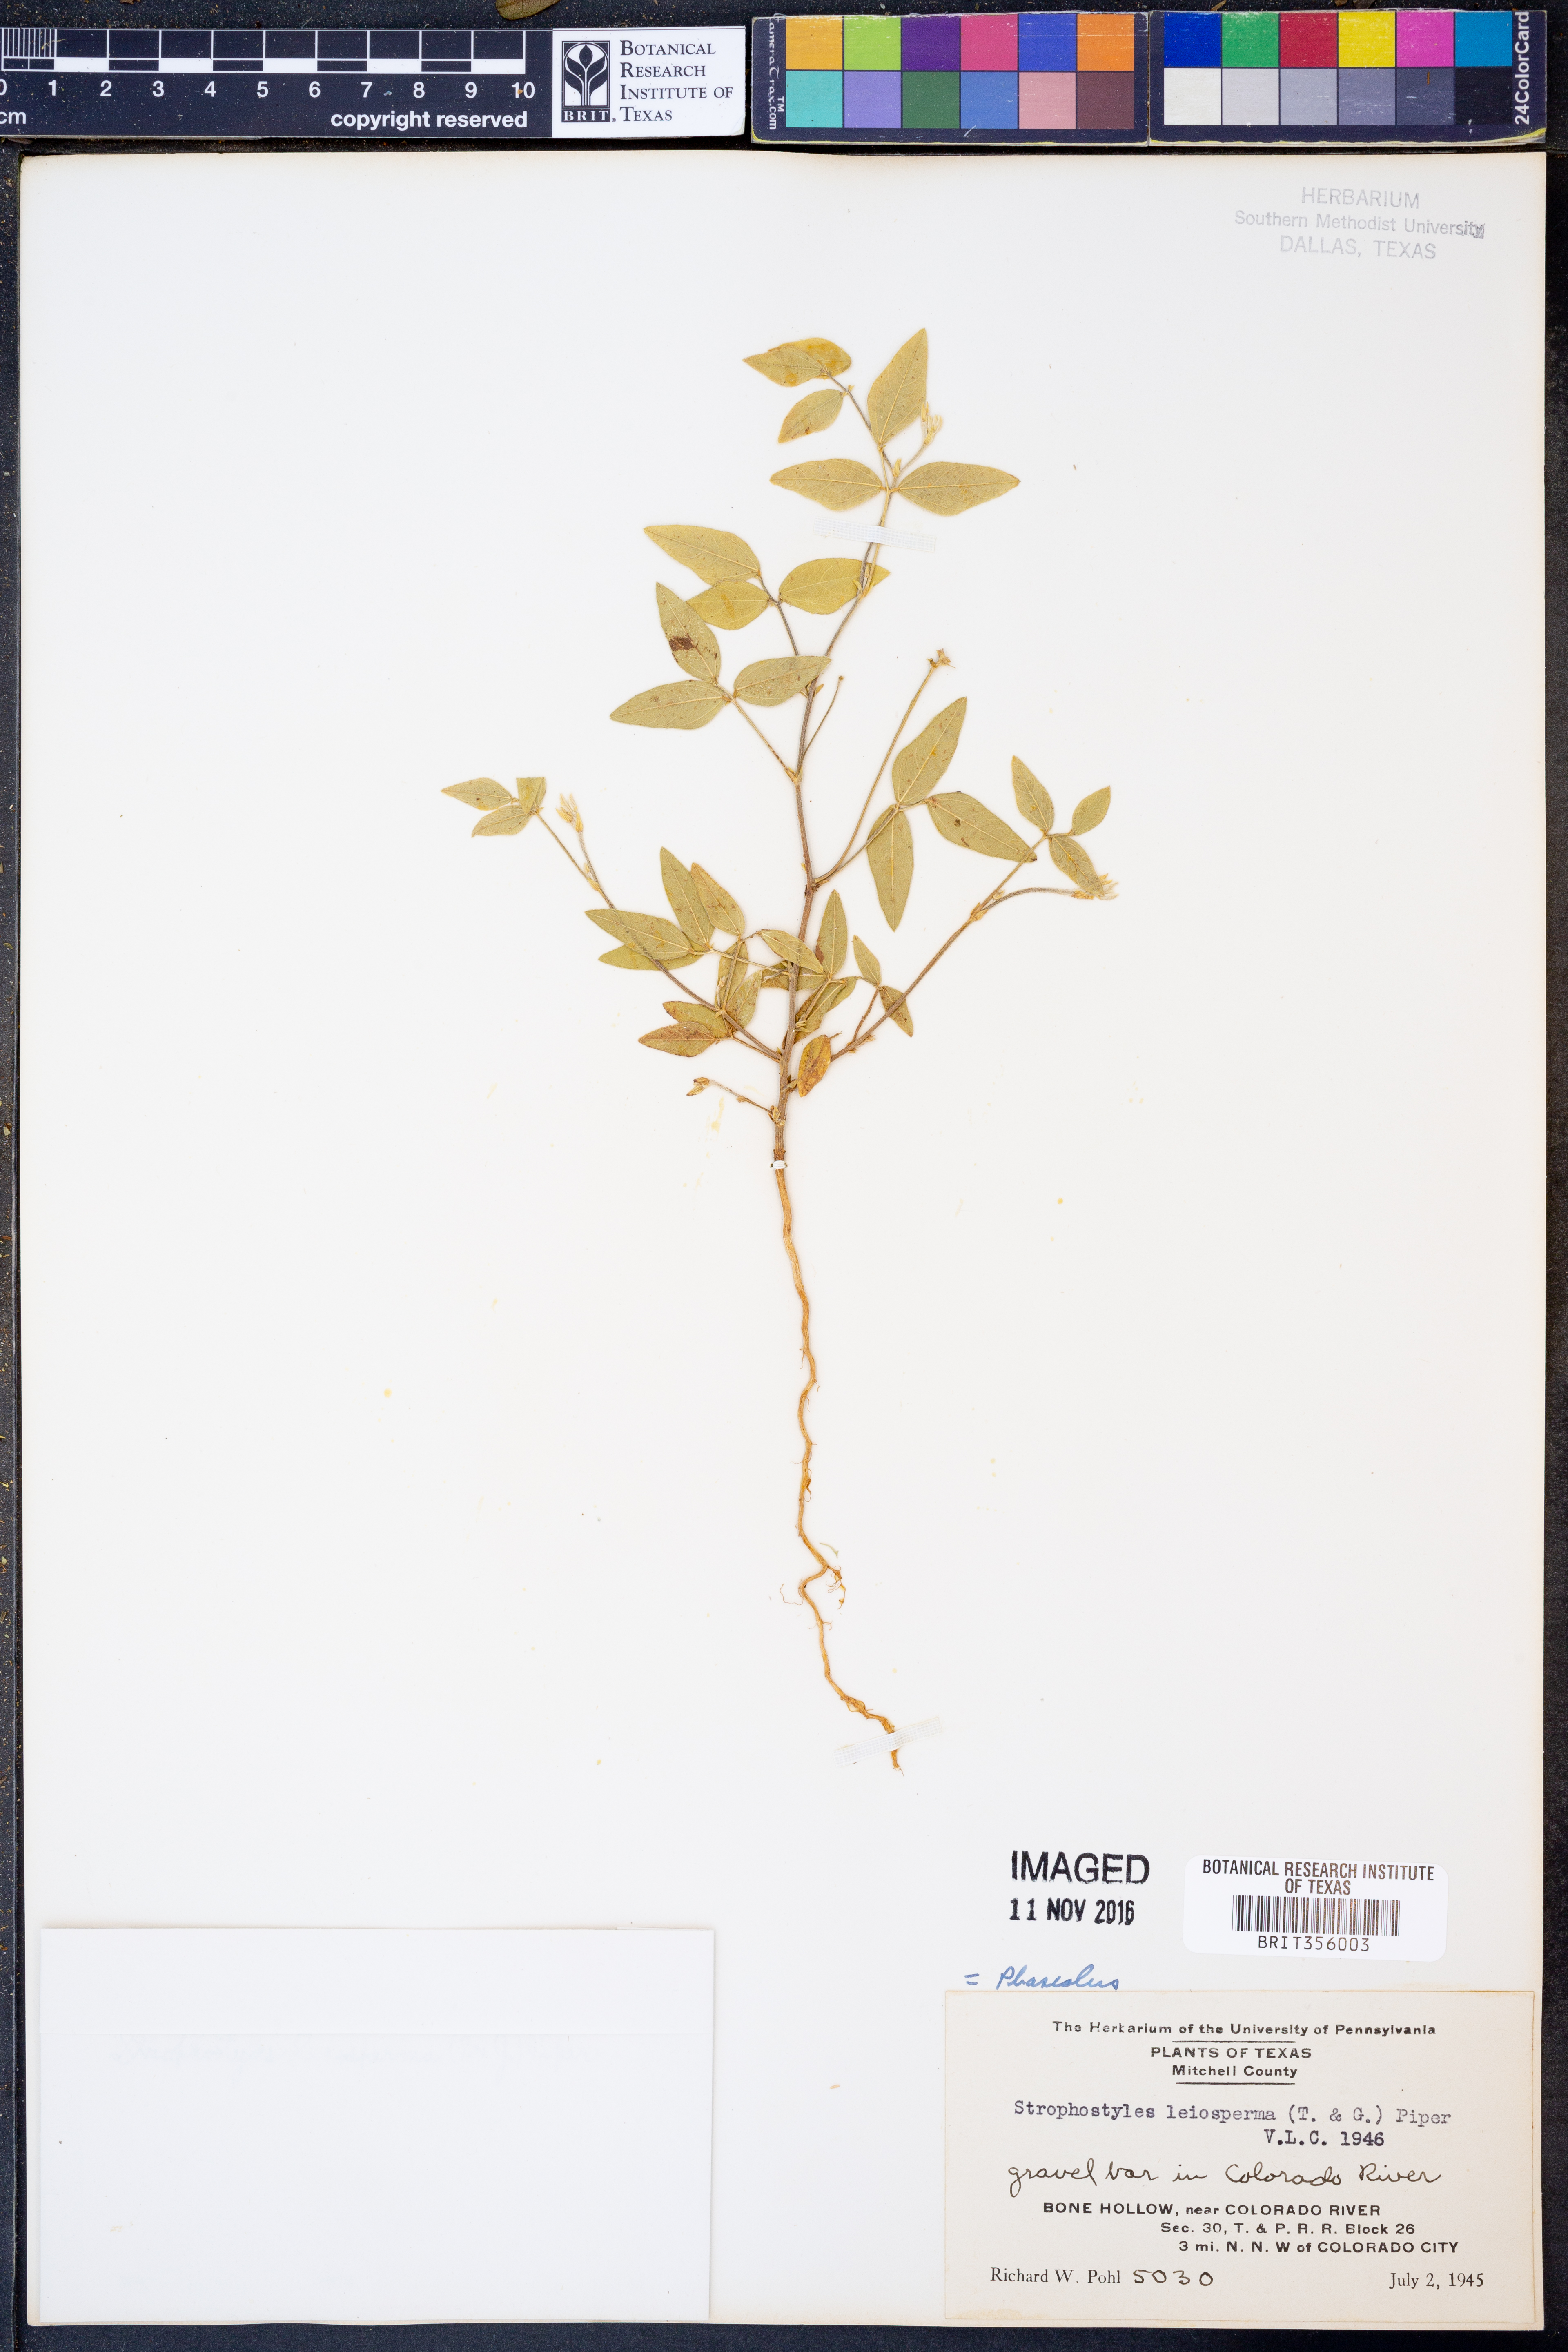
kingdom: Plantae
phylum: Tracheophyta
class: Magnoliopsida
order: Fabales
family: Fabaceae
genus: Strophostyles
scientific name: Strophostyles leiosperma
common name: Smooth-seed wild bean
